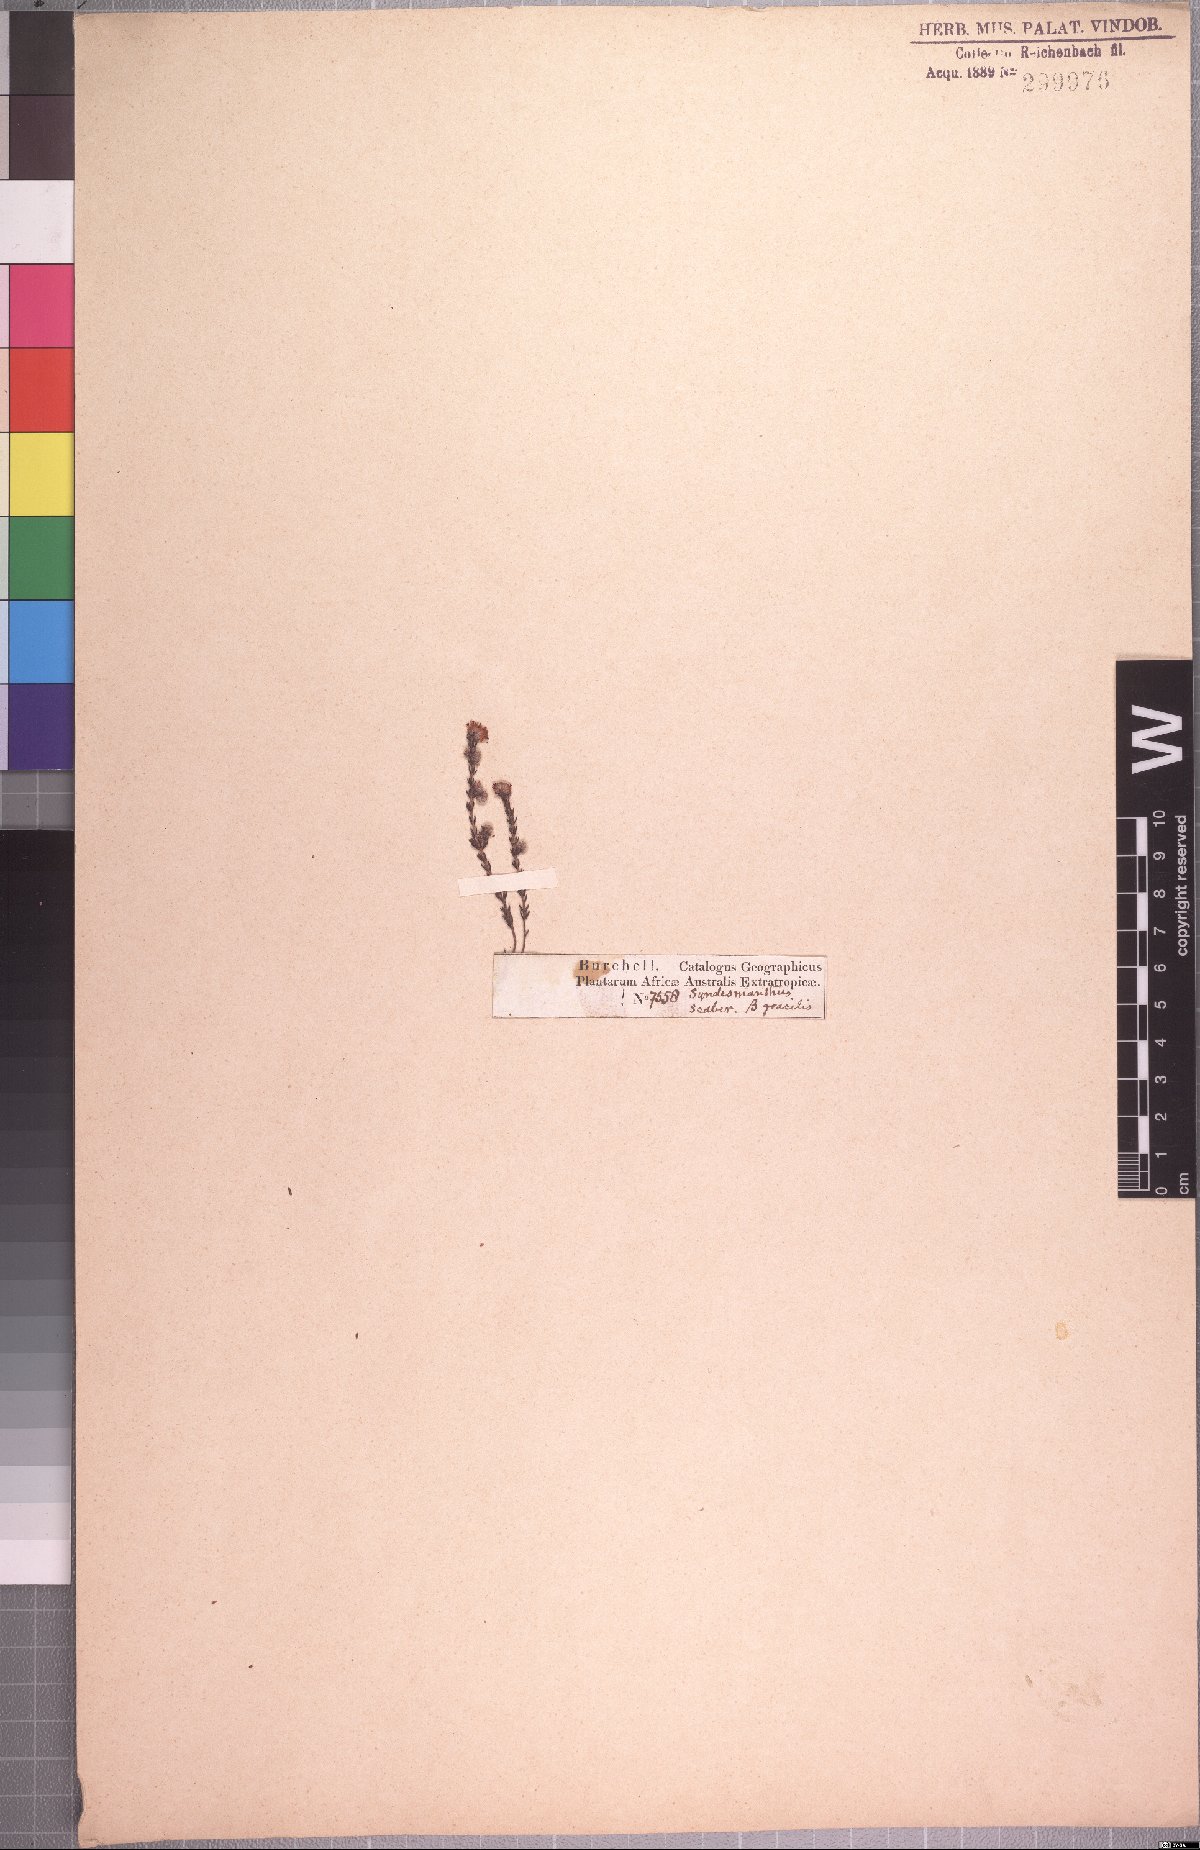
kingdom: Plantae
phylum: Tracheophyta
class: Magnoliopsida
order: Ericales
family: Ericaceae
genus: Erica
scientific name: Erica globiceps
